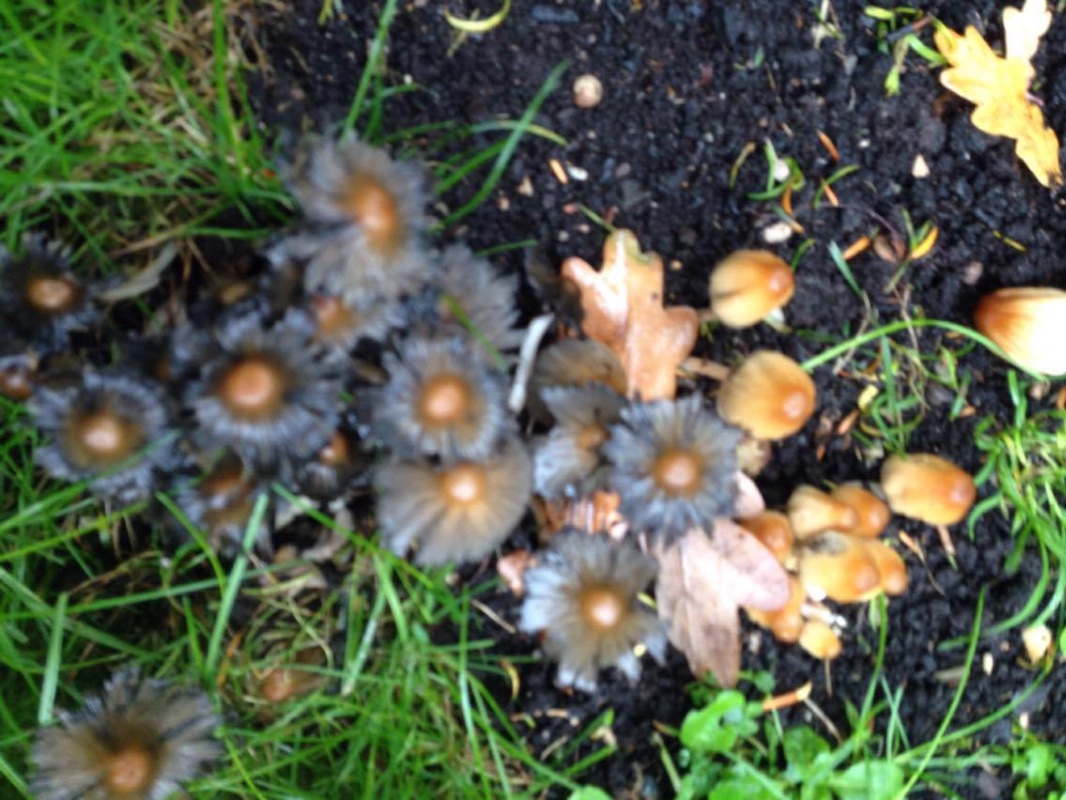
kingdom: Fungi
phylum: Basidiomycota
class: Agaricomycetes
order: Agaricales
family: Psathyrellaceae
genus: Coprinellus
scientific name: Coprinellus
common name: blækhat
